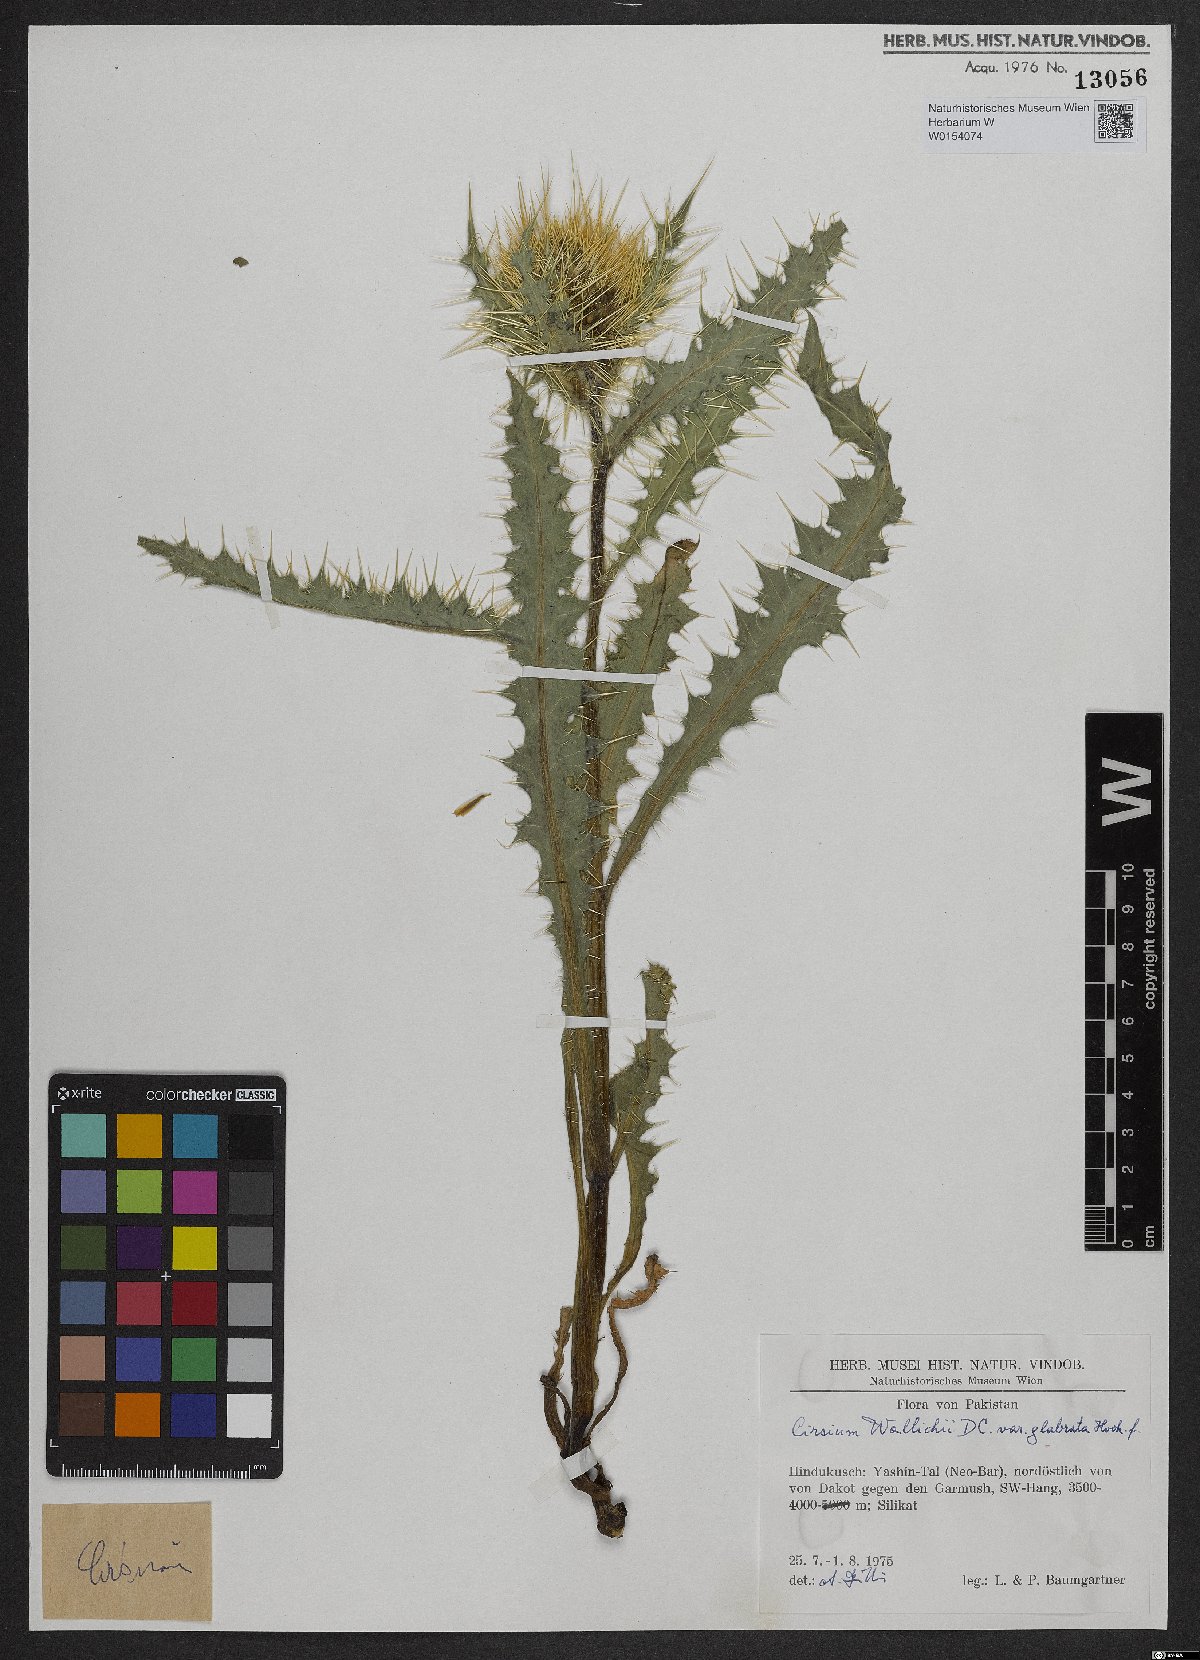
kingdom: Plantae
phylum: Tracheophyta
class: Magnoliopsida
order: Asterales
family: Asteraceae
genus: Cirsium
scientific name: Cirsium wallichii
